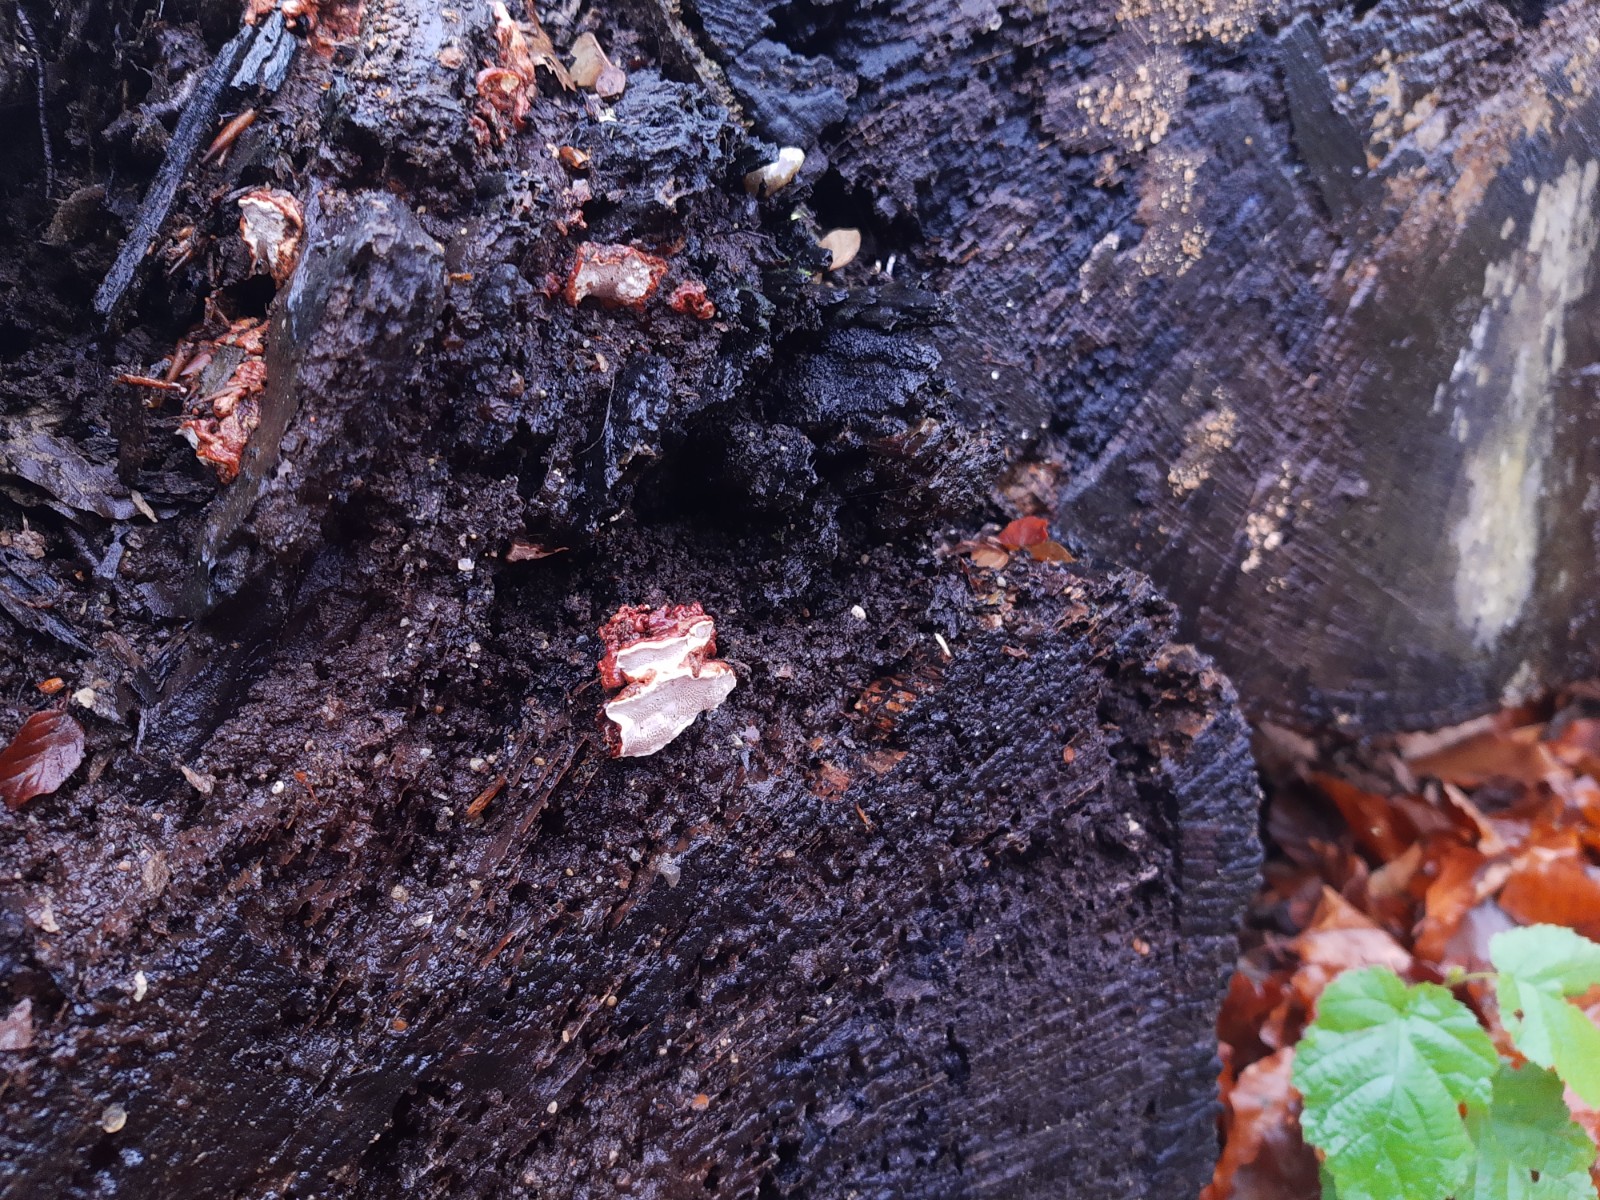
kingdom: Fungi
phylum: Basidiomycota
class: Agaricomycetes
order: Russulales
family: Bondarzewiaceae
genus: Heterobasidion
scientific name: Heterobasidion annosum
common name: almindelig rodfordærver
